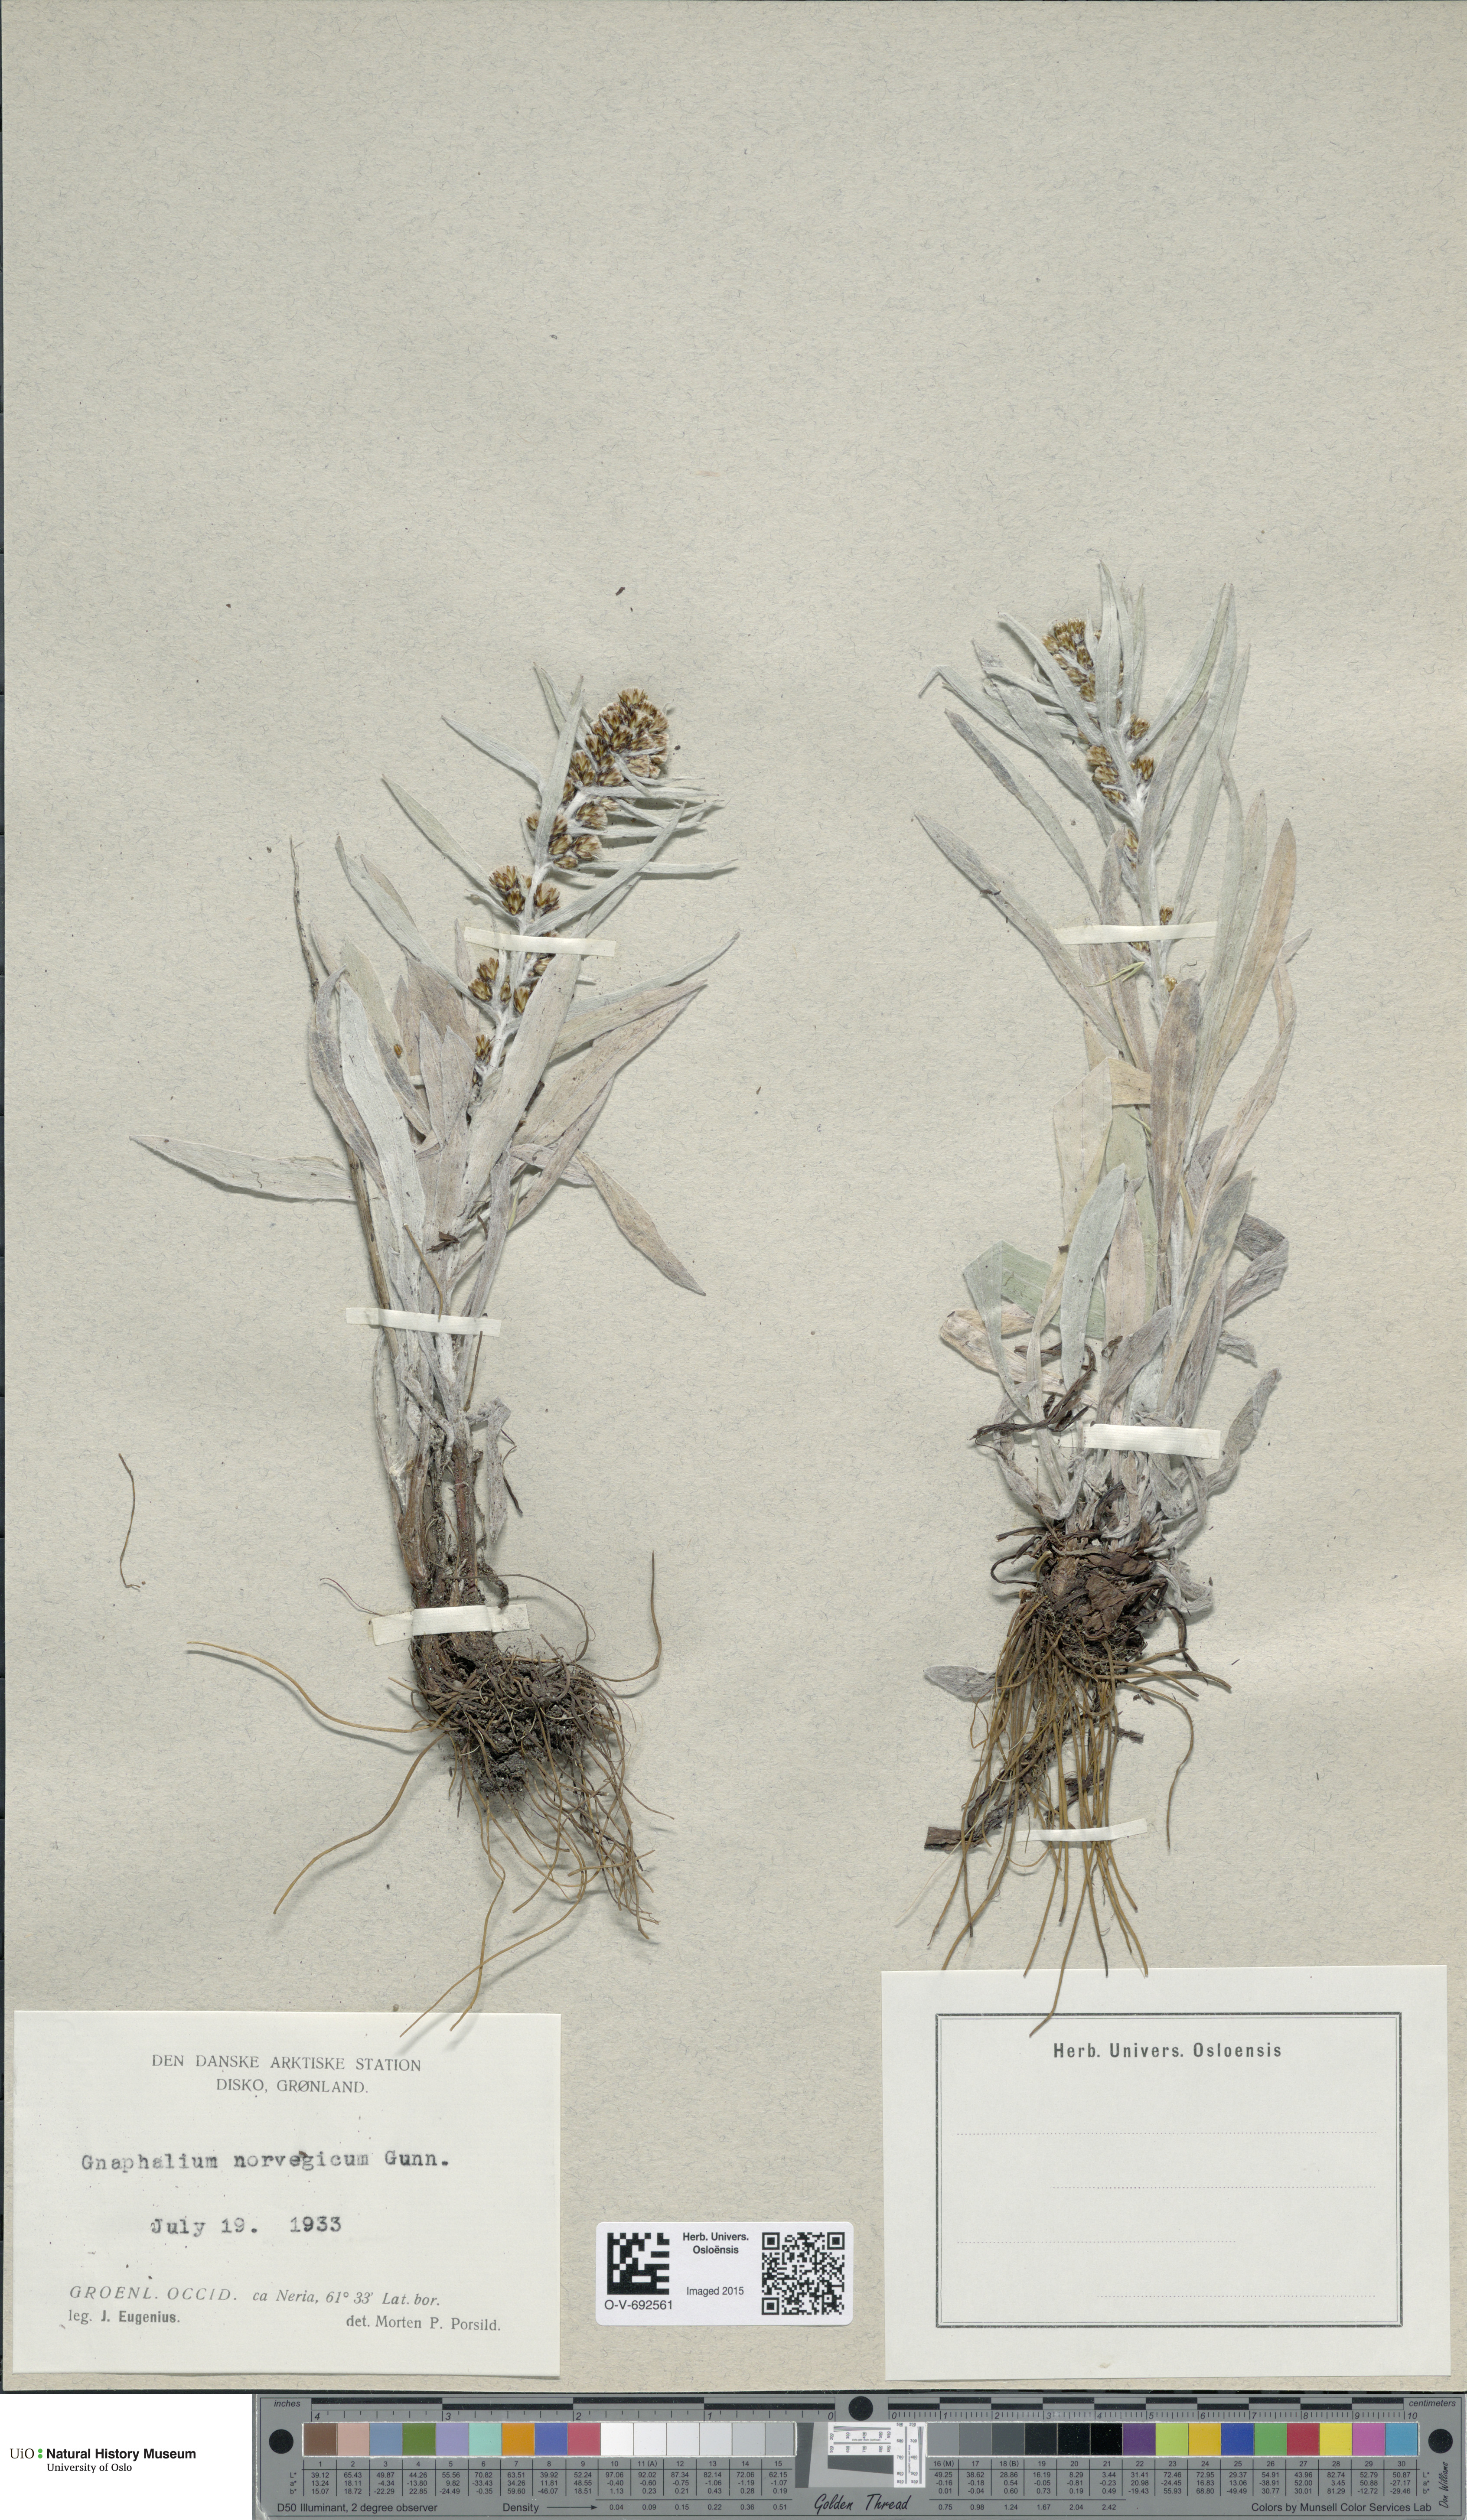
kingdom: Plantae
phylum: Tracheophyta
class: Magnoliopsida
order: Asterales
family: Asteraceae
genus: Omalotheca
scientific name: Omalotheca norvegica
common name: Norwegian arctic-cudweed
